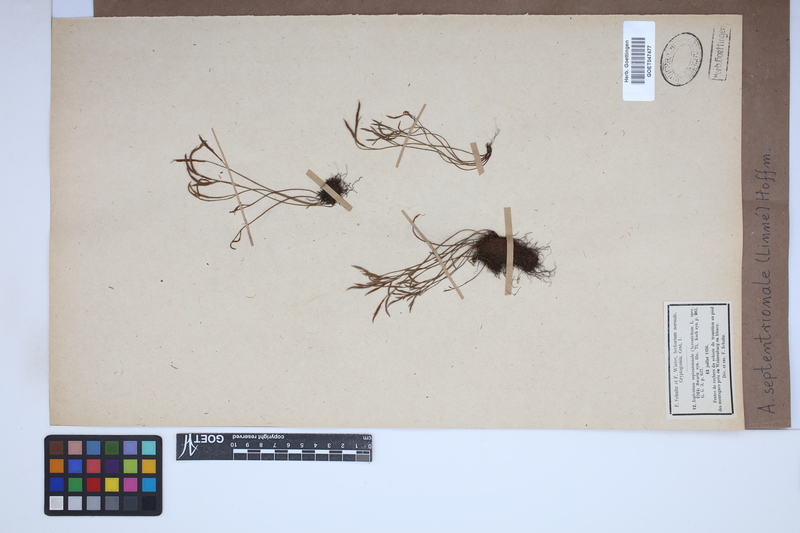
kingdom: Plantae
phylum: Tracheophyta
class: Polypodiopsida
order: Polypodiales
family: Aspleniaceae
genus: Asplenium
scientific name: Asplenium septentrionale
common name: Forked spleenwort
